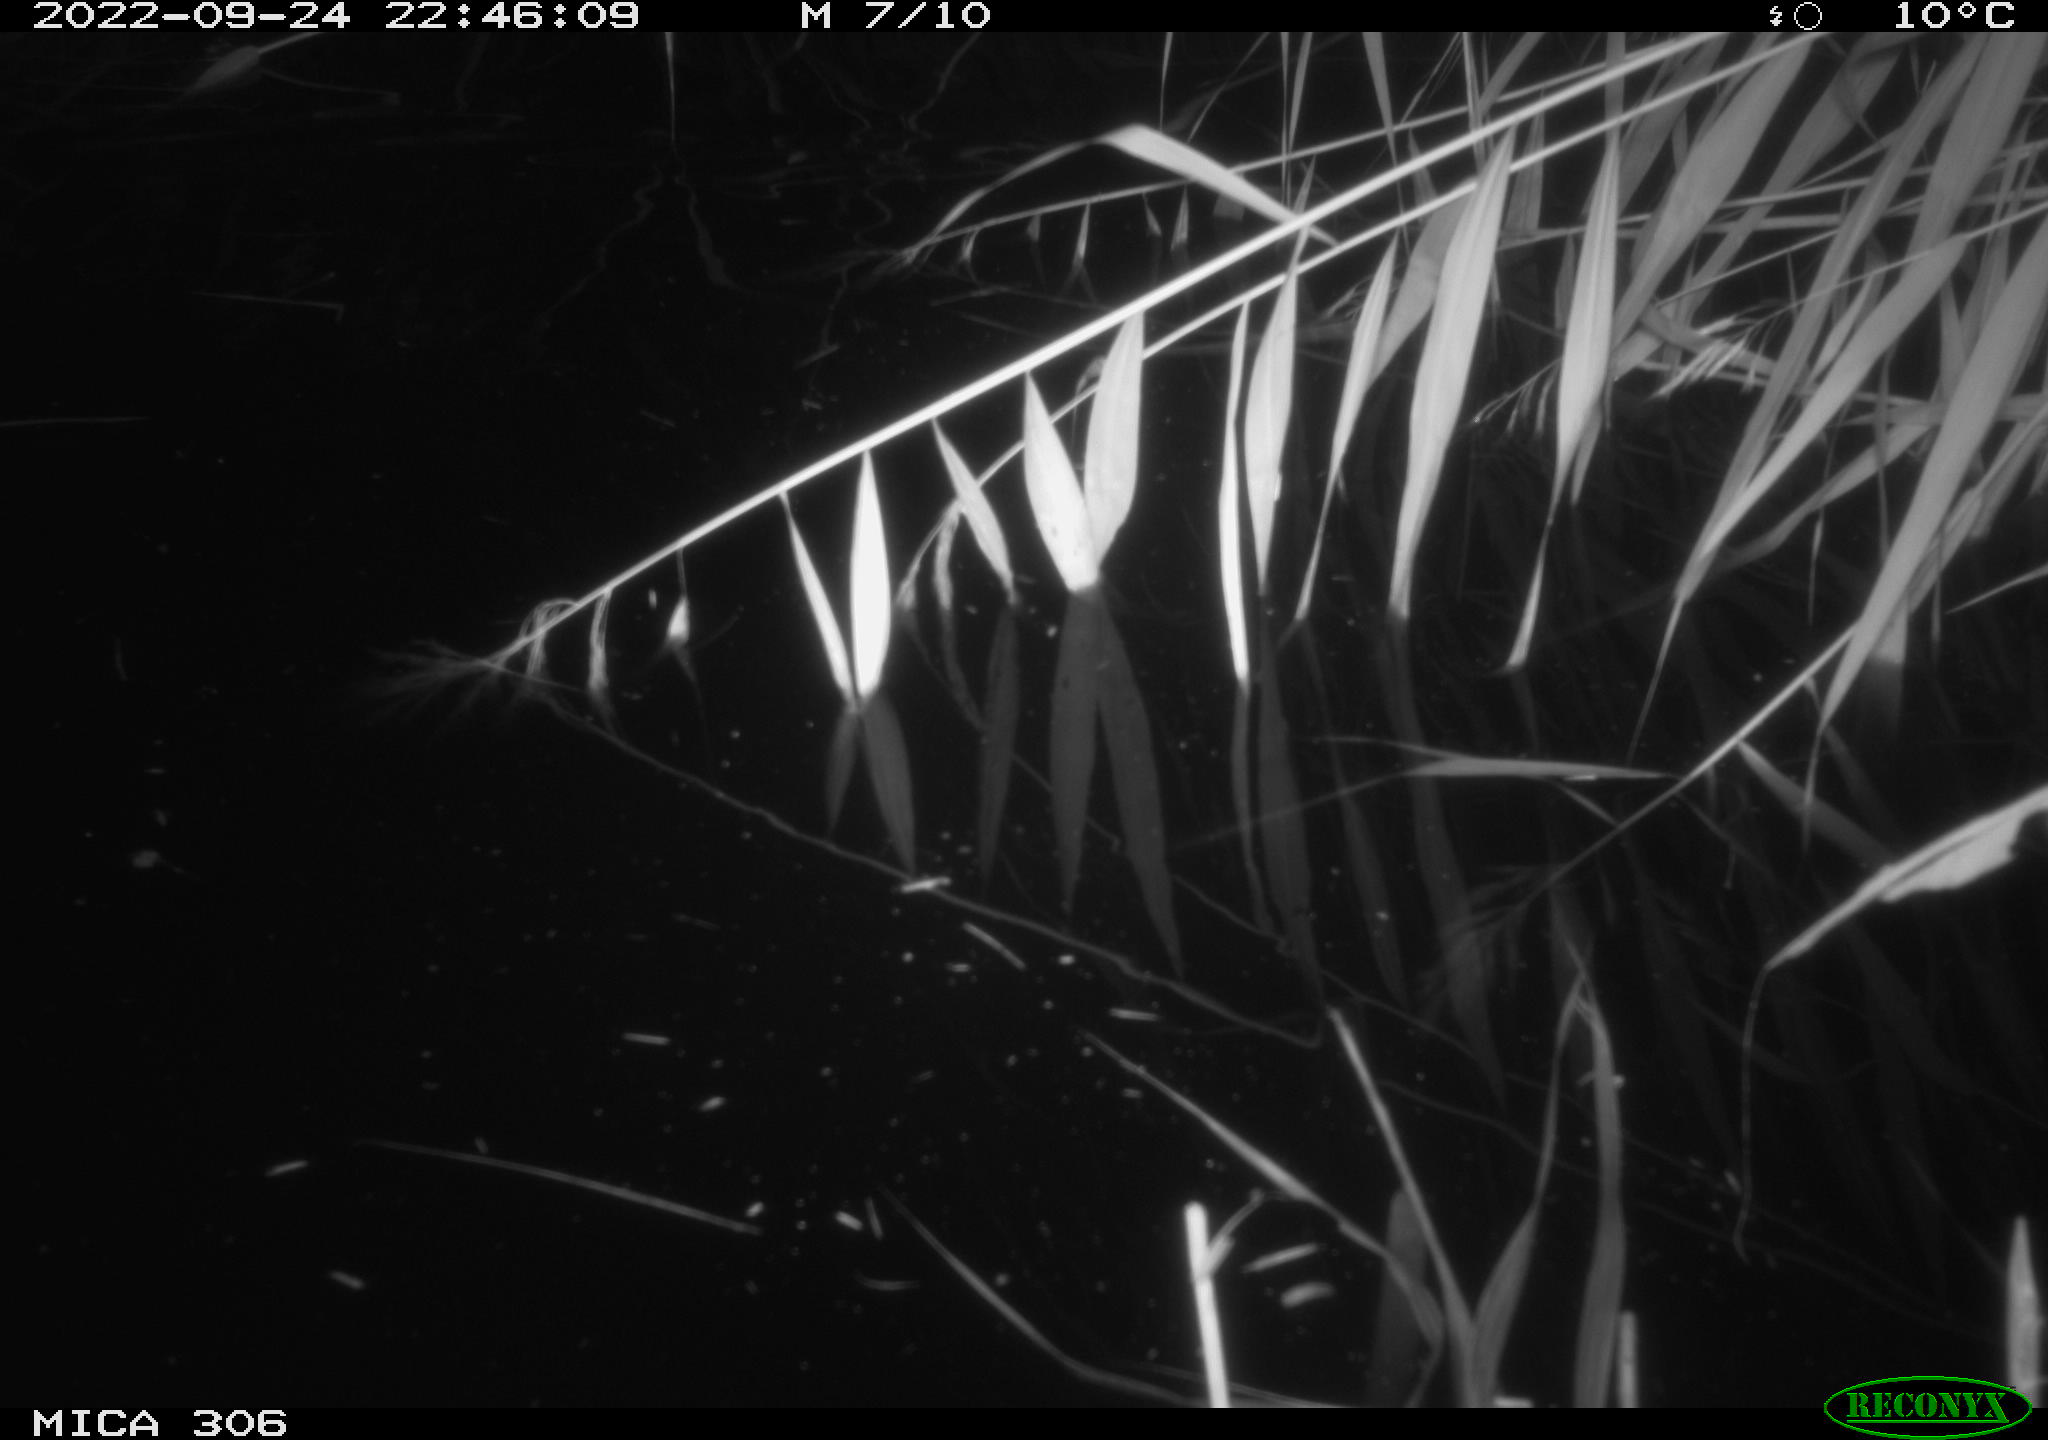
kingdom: Animalia
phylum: Chordata
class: Mammalia
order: Rodentia
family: Muridae
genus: Rattus
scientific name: Rattus norvegicus
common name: Brown rat
